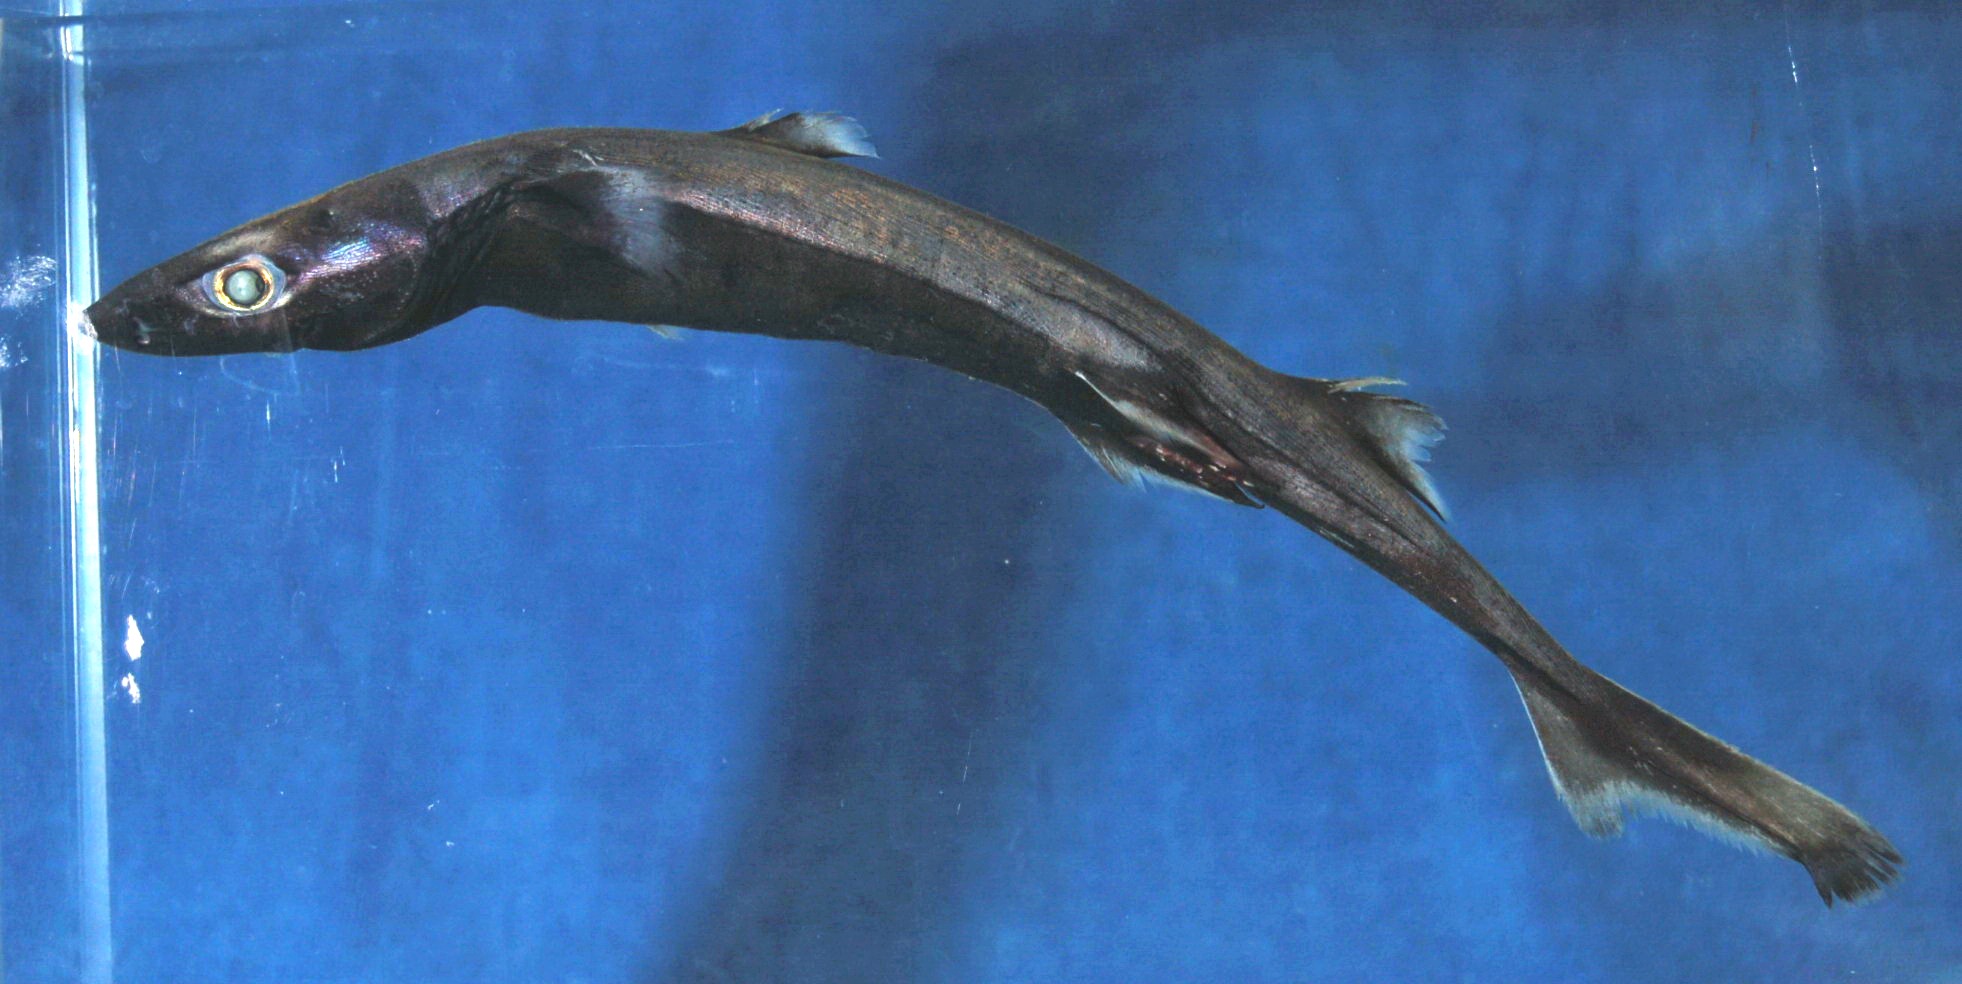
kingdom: Animalia
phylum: Chordata
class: Elasmobranchii
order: Squaliformes
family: Etmopteridae
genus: Etmopterus
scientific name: Etmopterus sculptus
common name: Sculpted lanternshark
